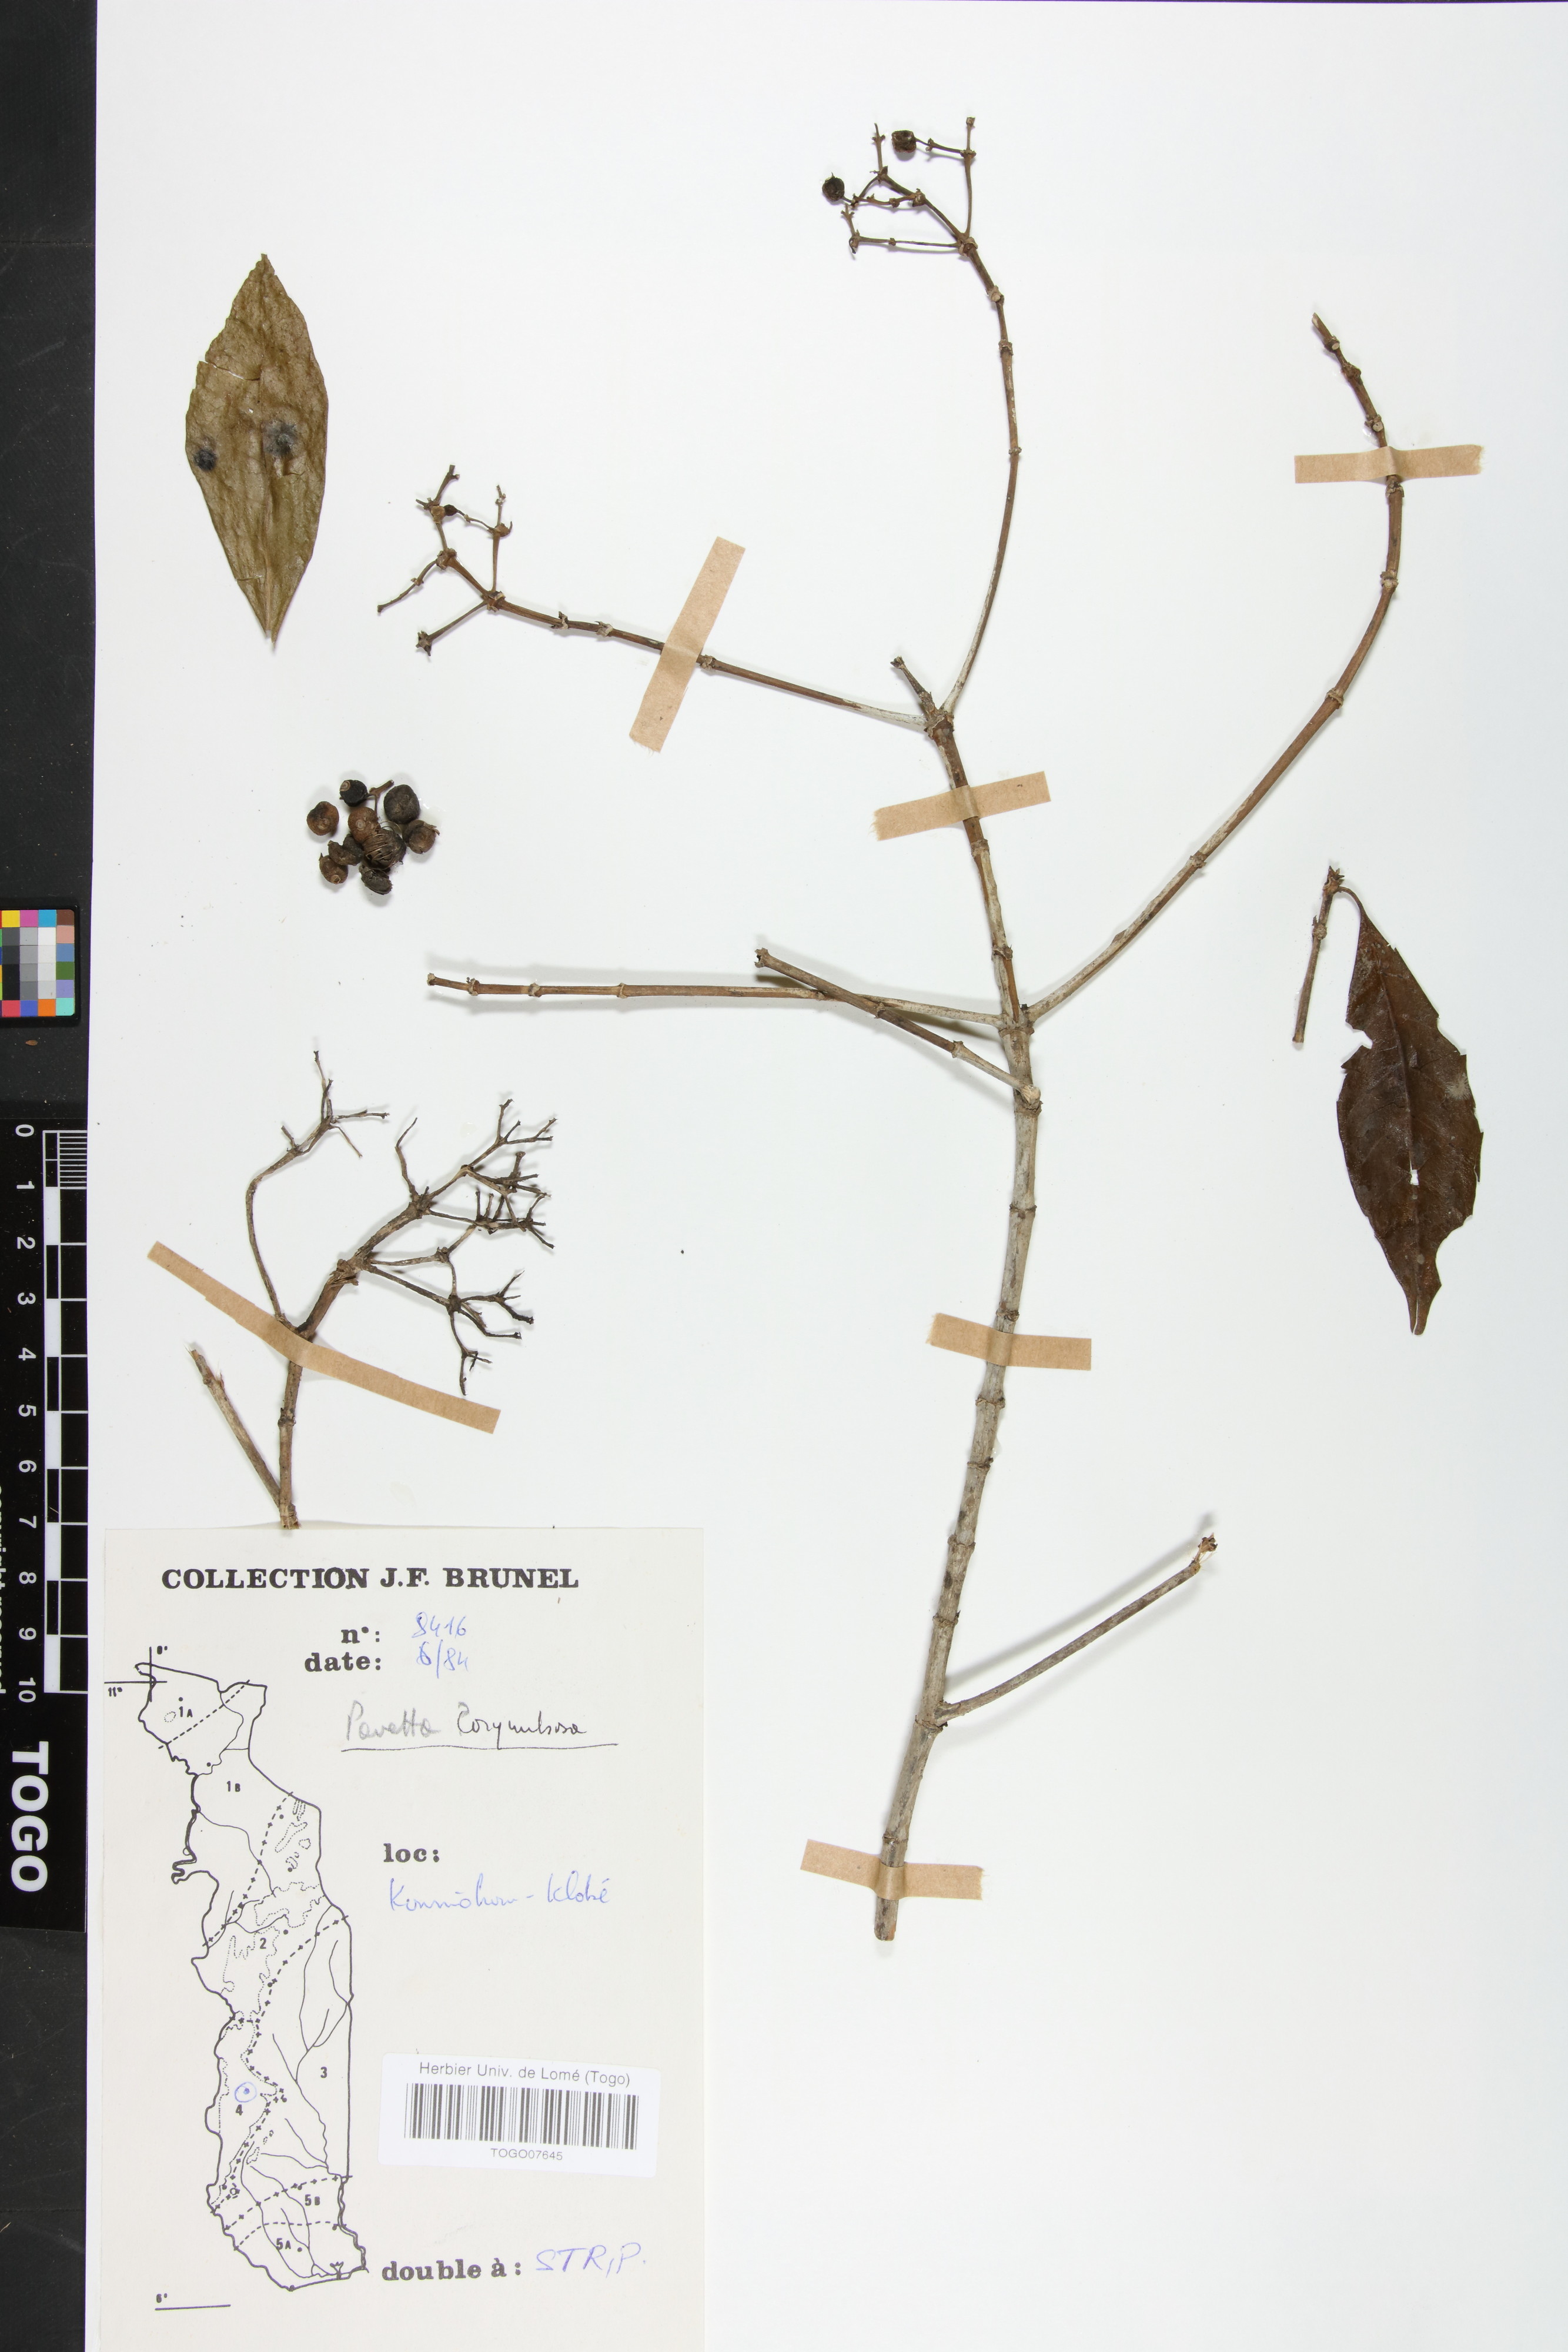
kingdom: Plantae
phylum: Tracheophyta
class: Magnoliopsida
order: Gentianales
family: Rubiaceae
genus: Pavetta
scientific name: Pavetta corymbosa
